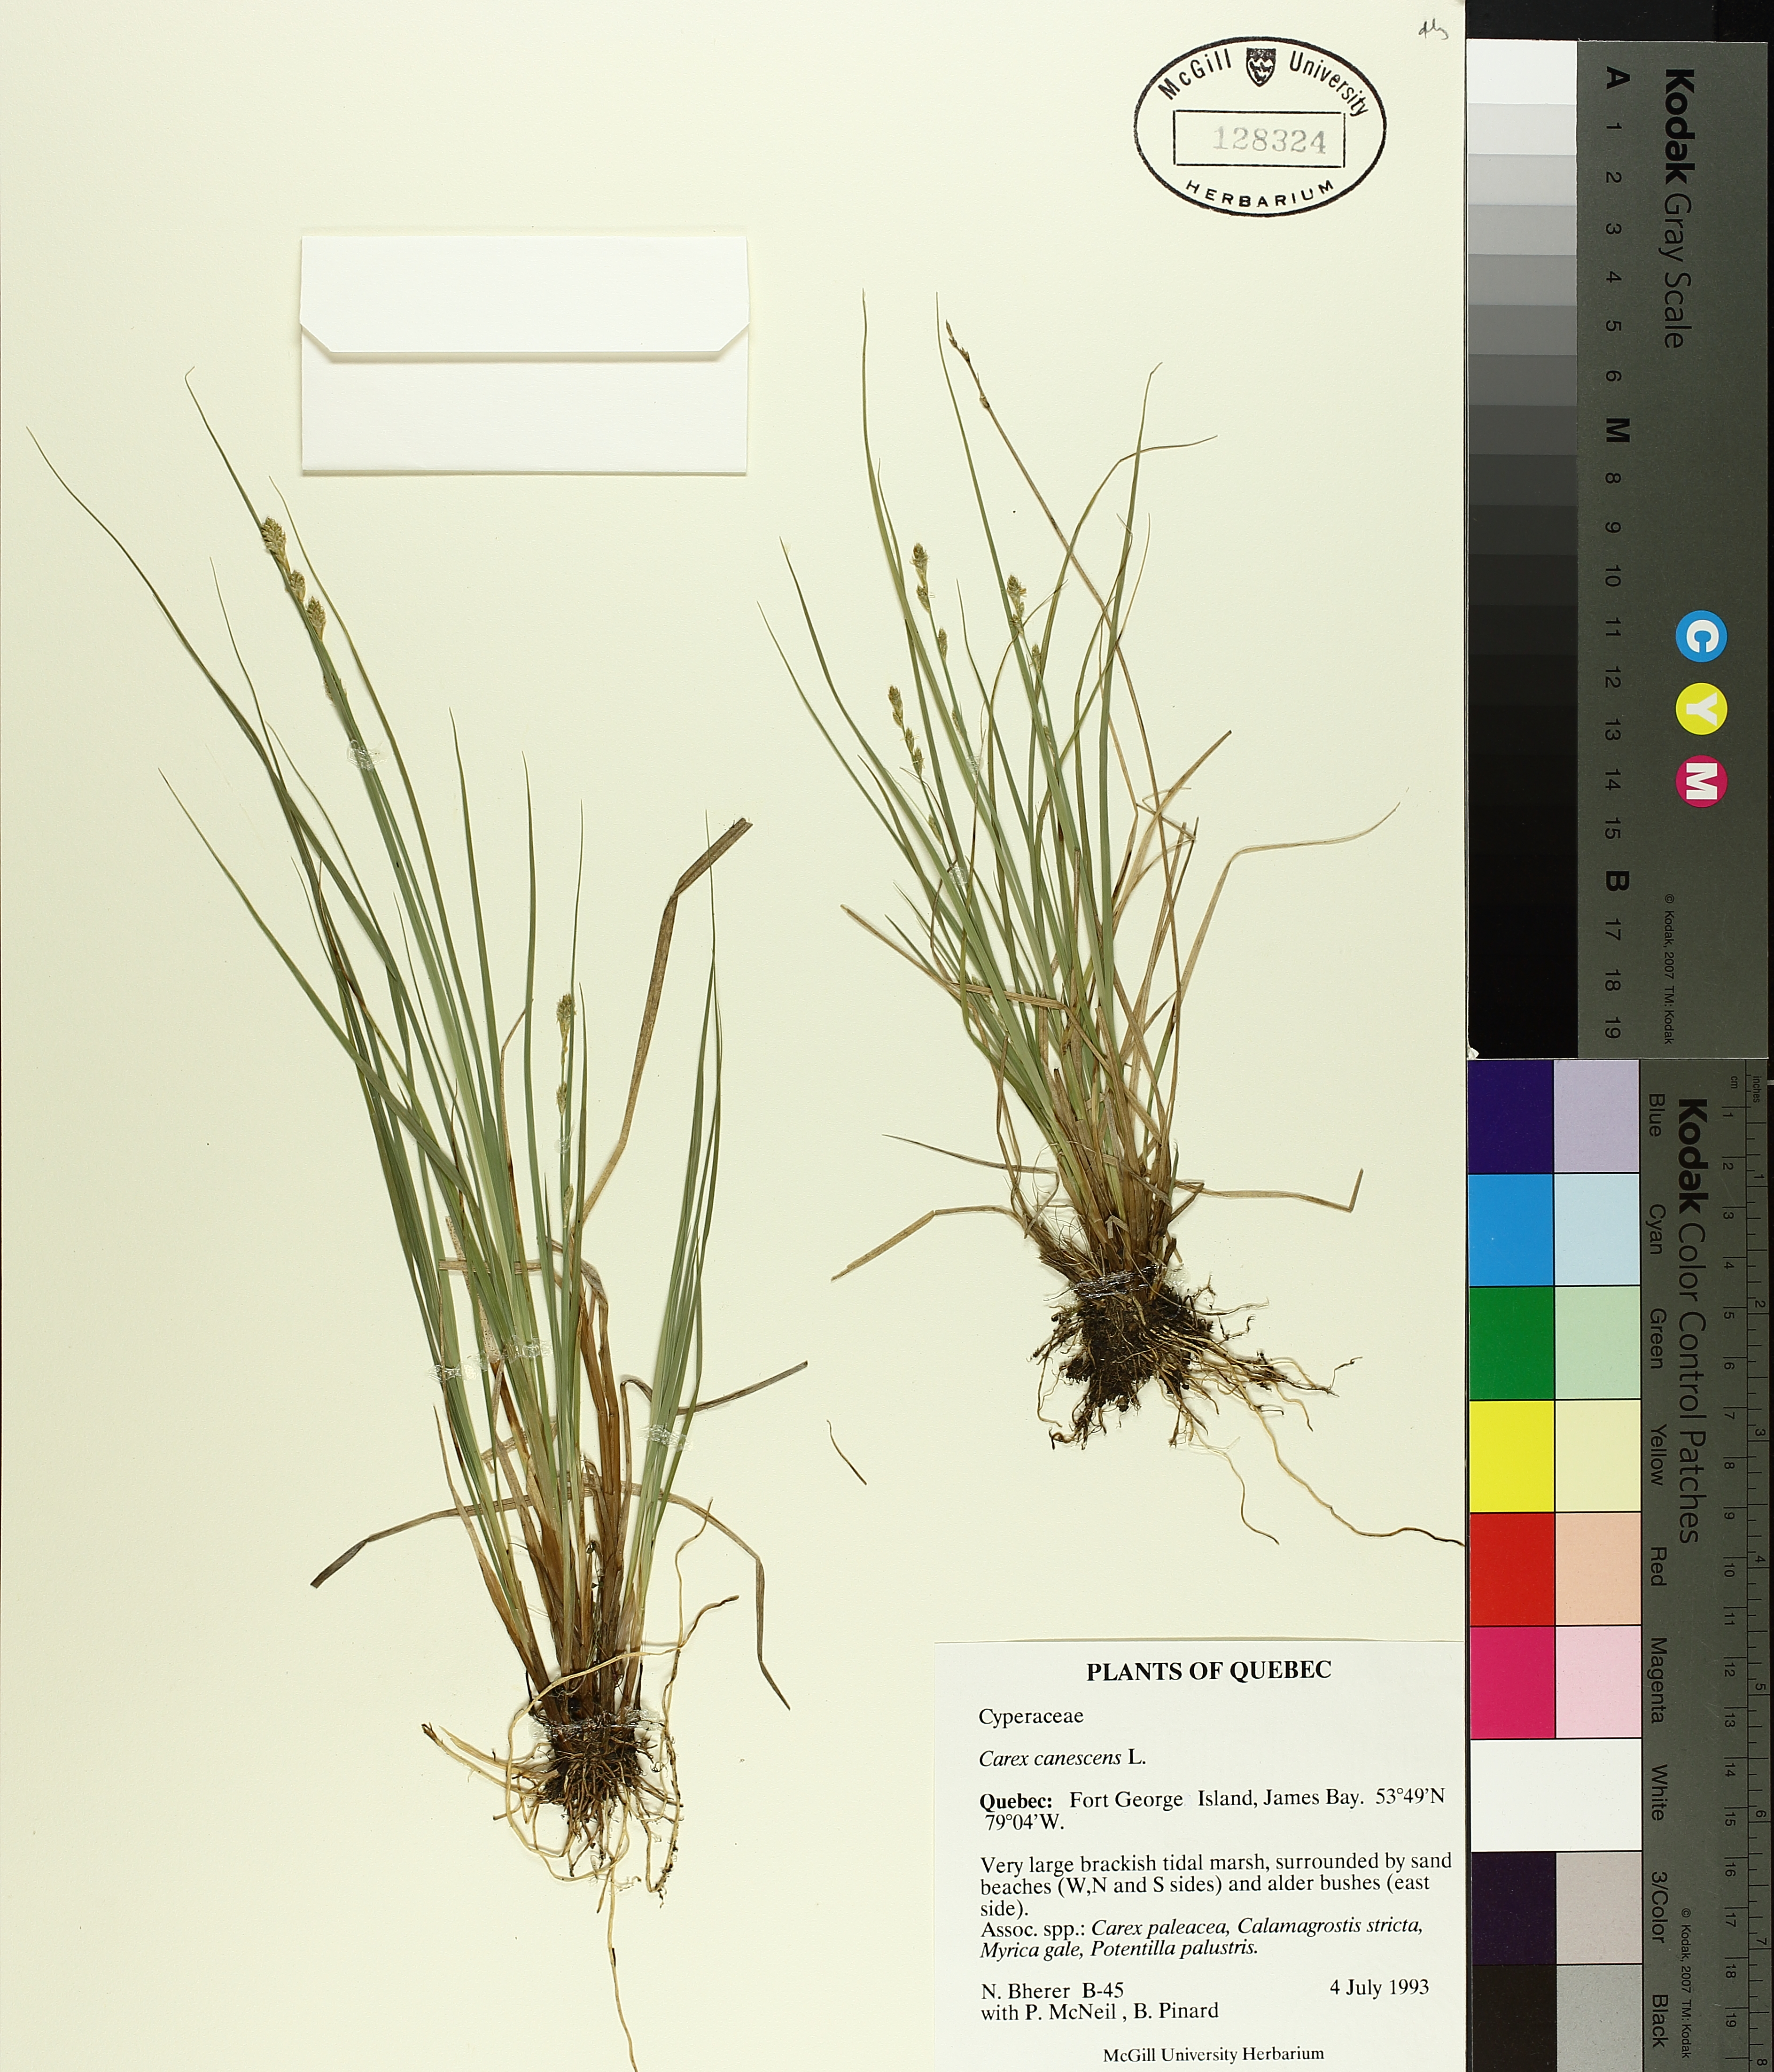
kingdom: Plantae
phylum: Tracheophyta
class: Liliopsida
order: Poales
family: Cyperaceae
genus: Carex
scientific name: Carex canescens
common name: White sedge
